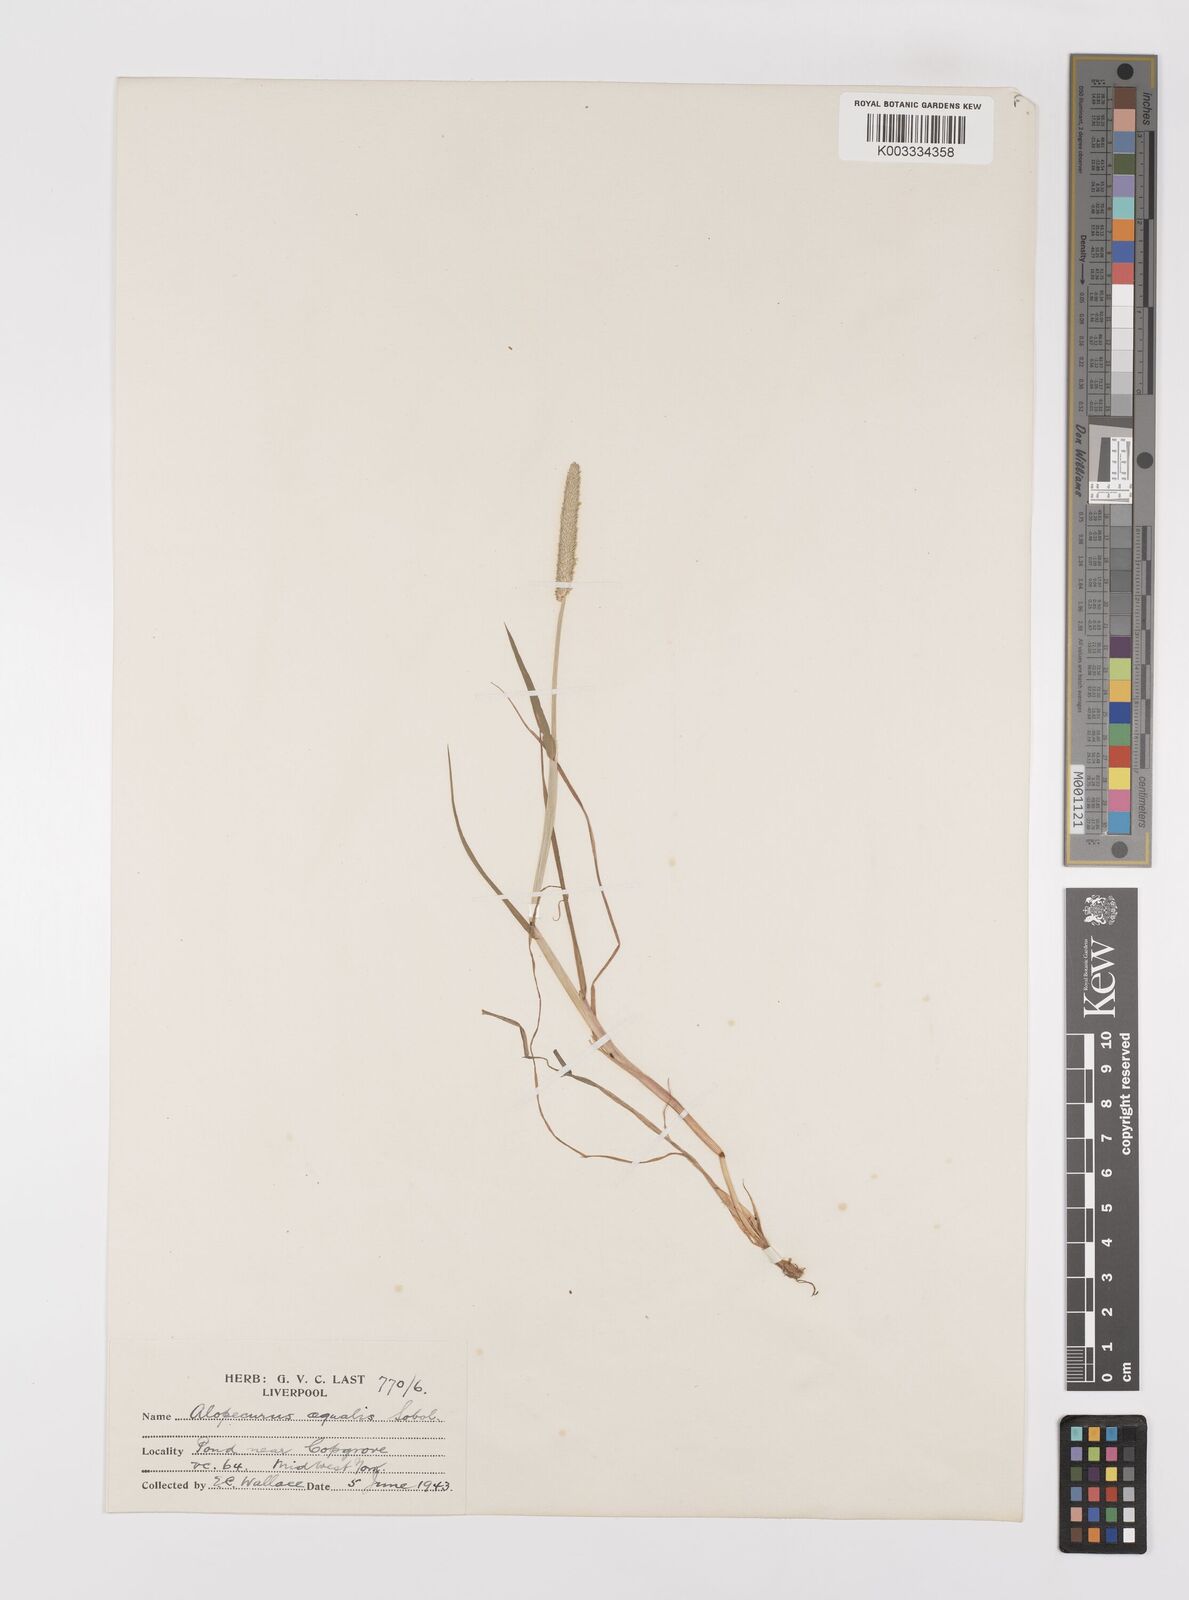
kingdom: Plantae
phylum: Tracheophyta
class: Liliopsida
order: Poales
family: Poaceae
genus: Alopecurus
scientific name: Alopecurus aequalis
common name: Orange foxtail
